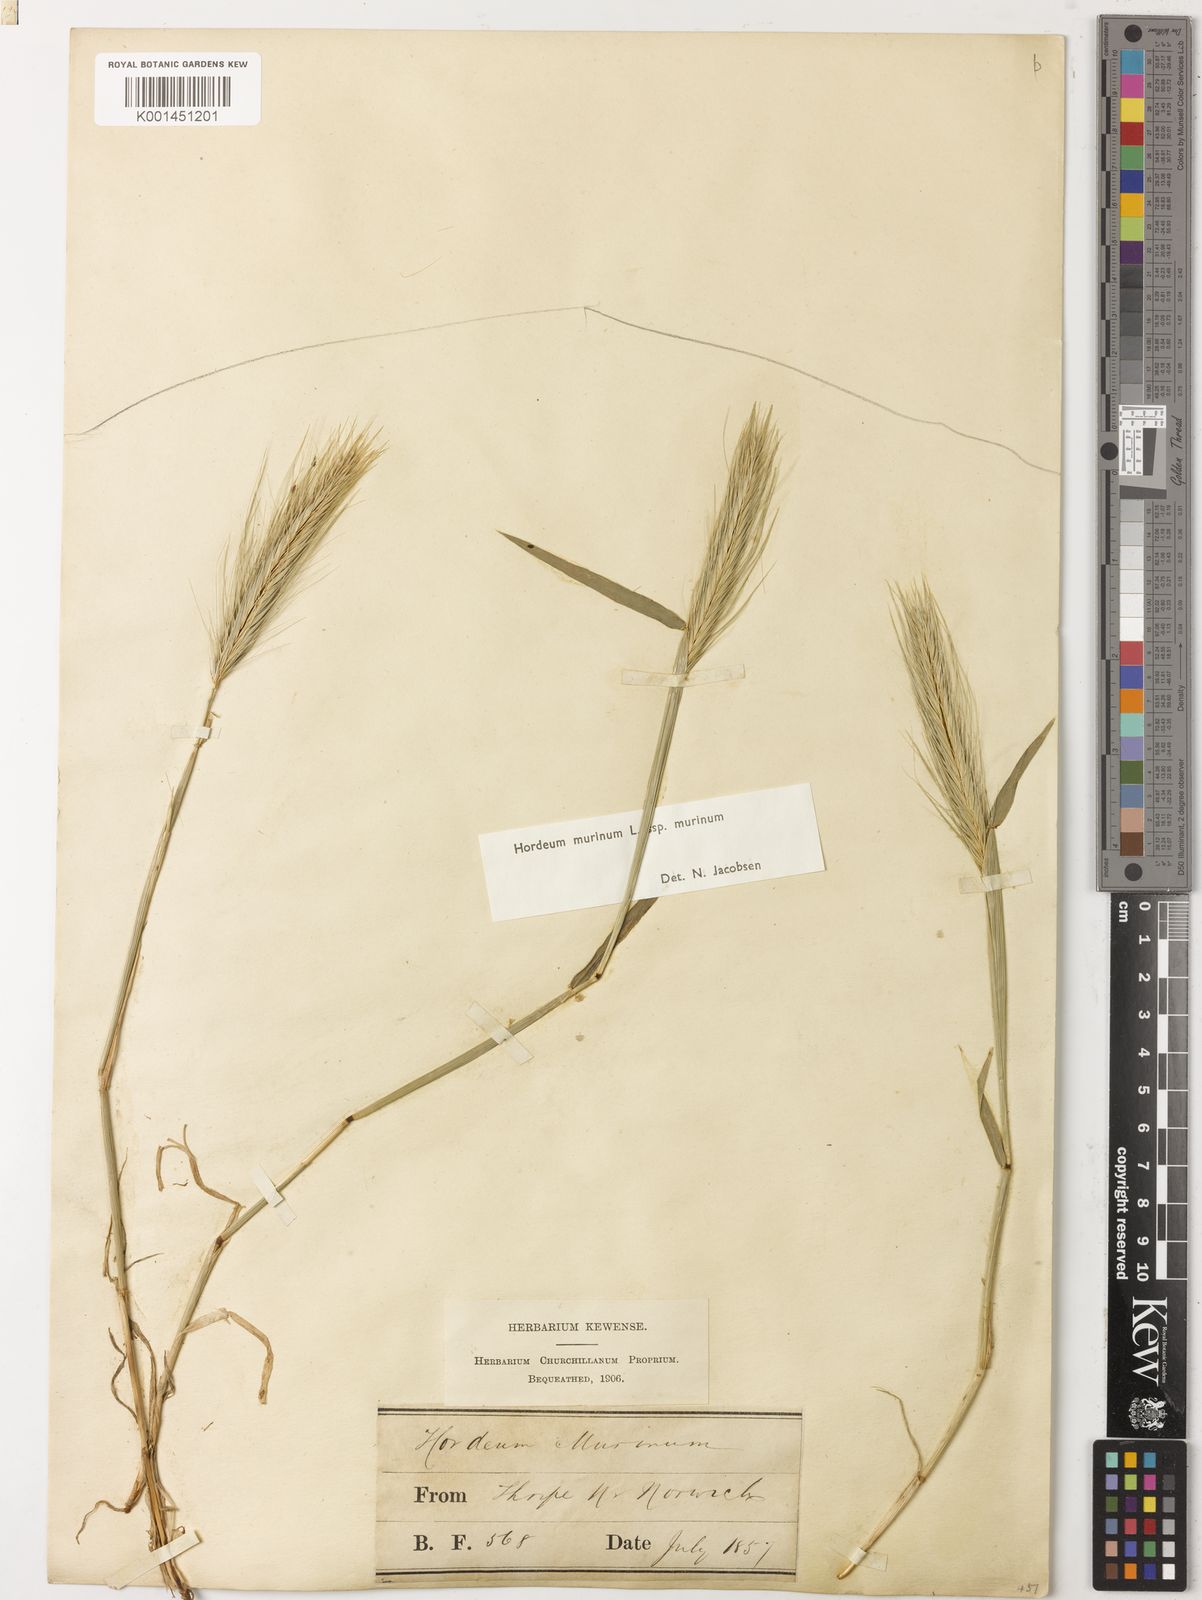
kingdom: Plantae
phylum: Tracheophyta
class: Liliopsida
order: Poales
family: Poaceae
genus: Hordeum
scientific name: Hordeum murinum
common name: Wall barley
